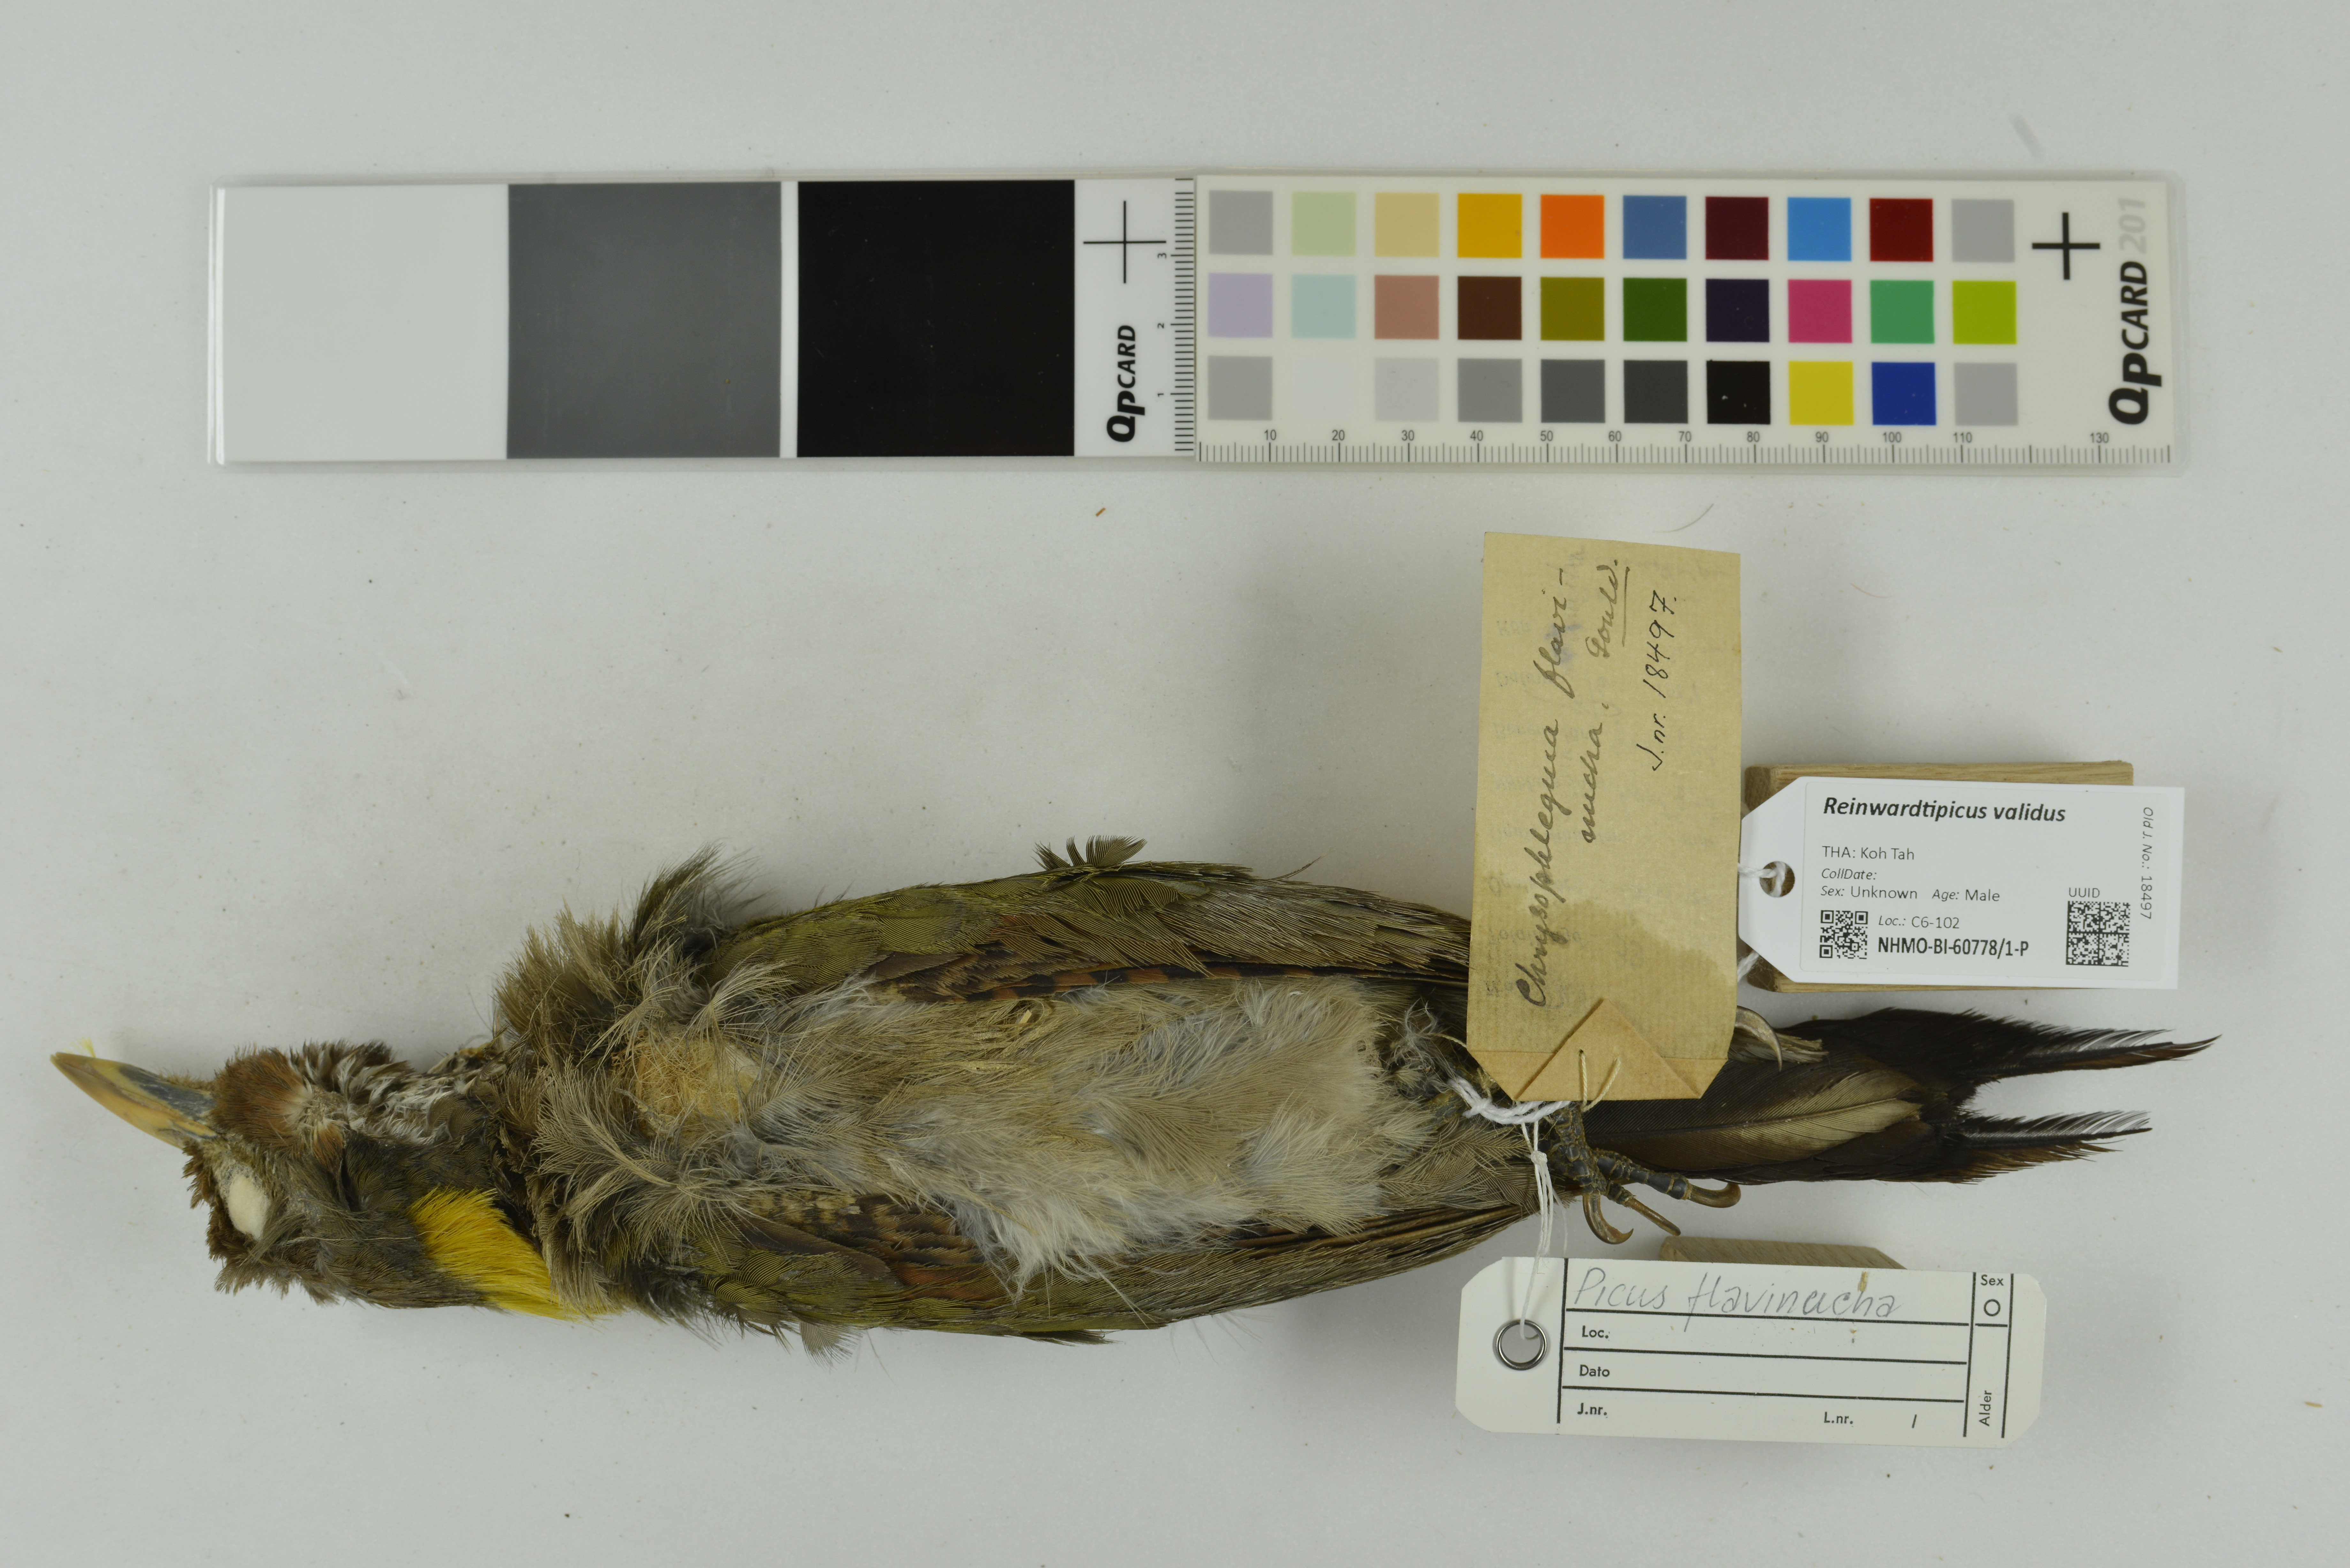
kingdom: Animalia
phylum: Chordata
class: Aves
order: Piciformes
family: Picidae
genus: Reinwardtipicus
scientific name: Reinwardtipicus validus
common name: Orange-backed woodpecker
